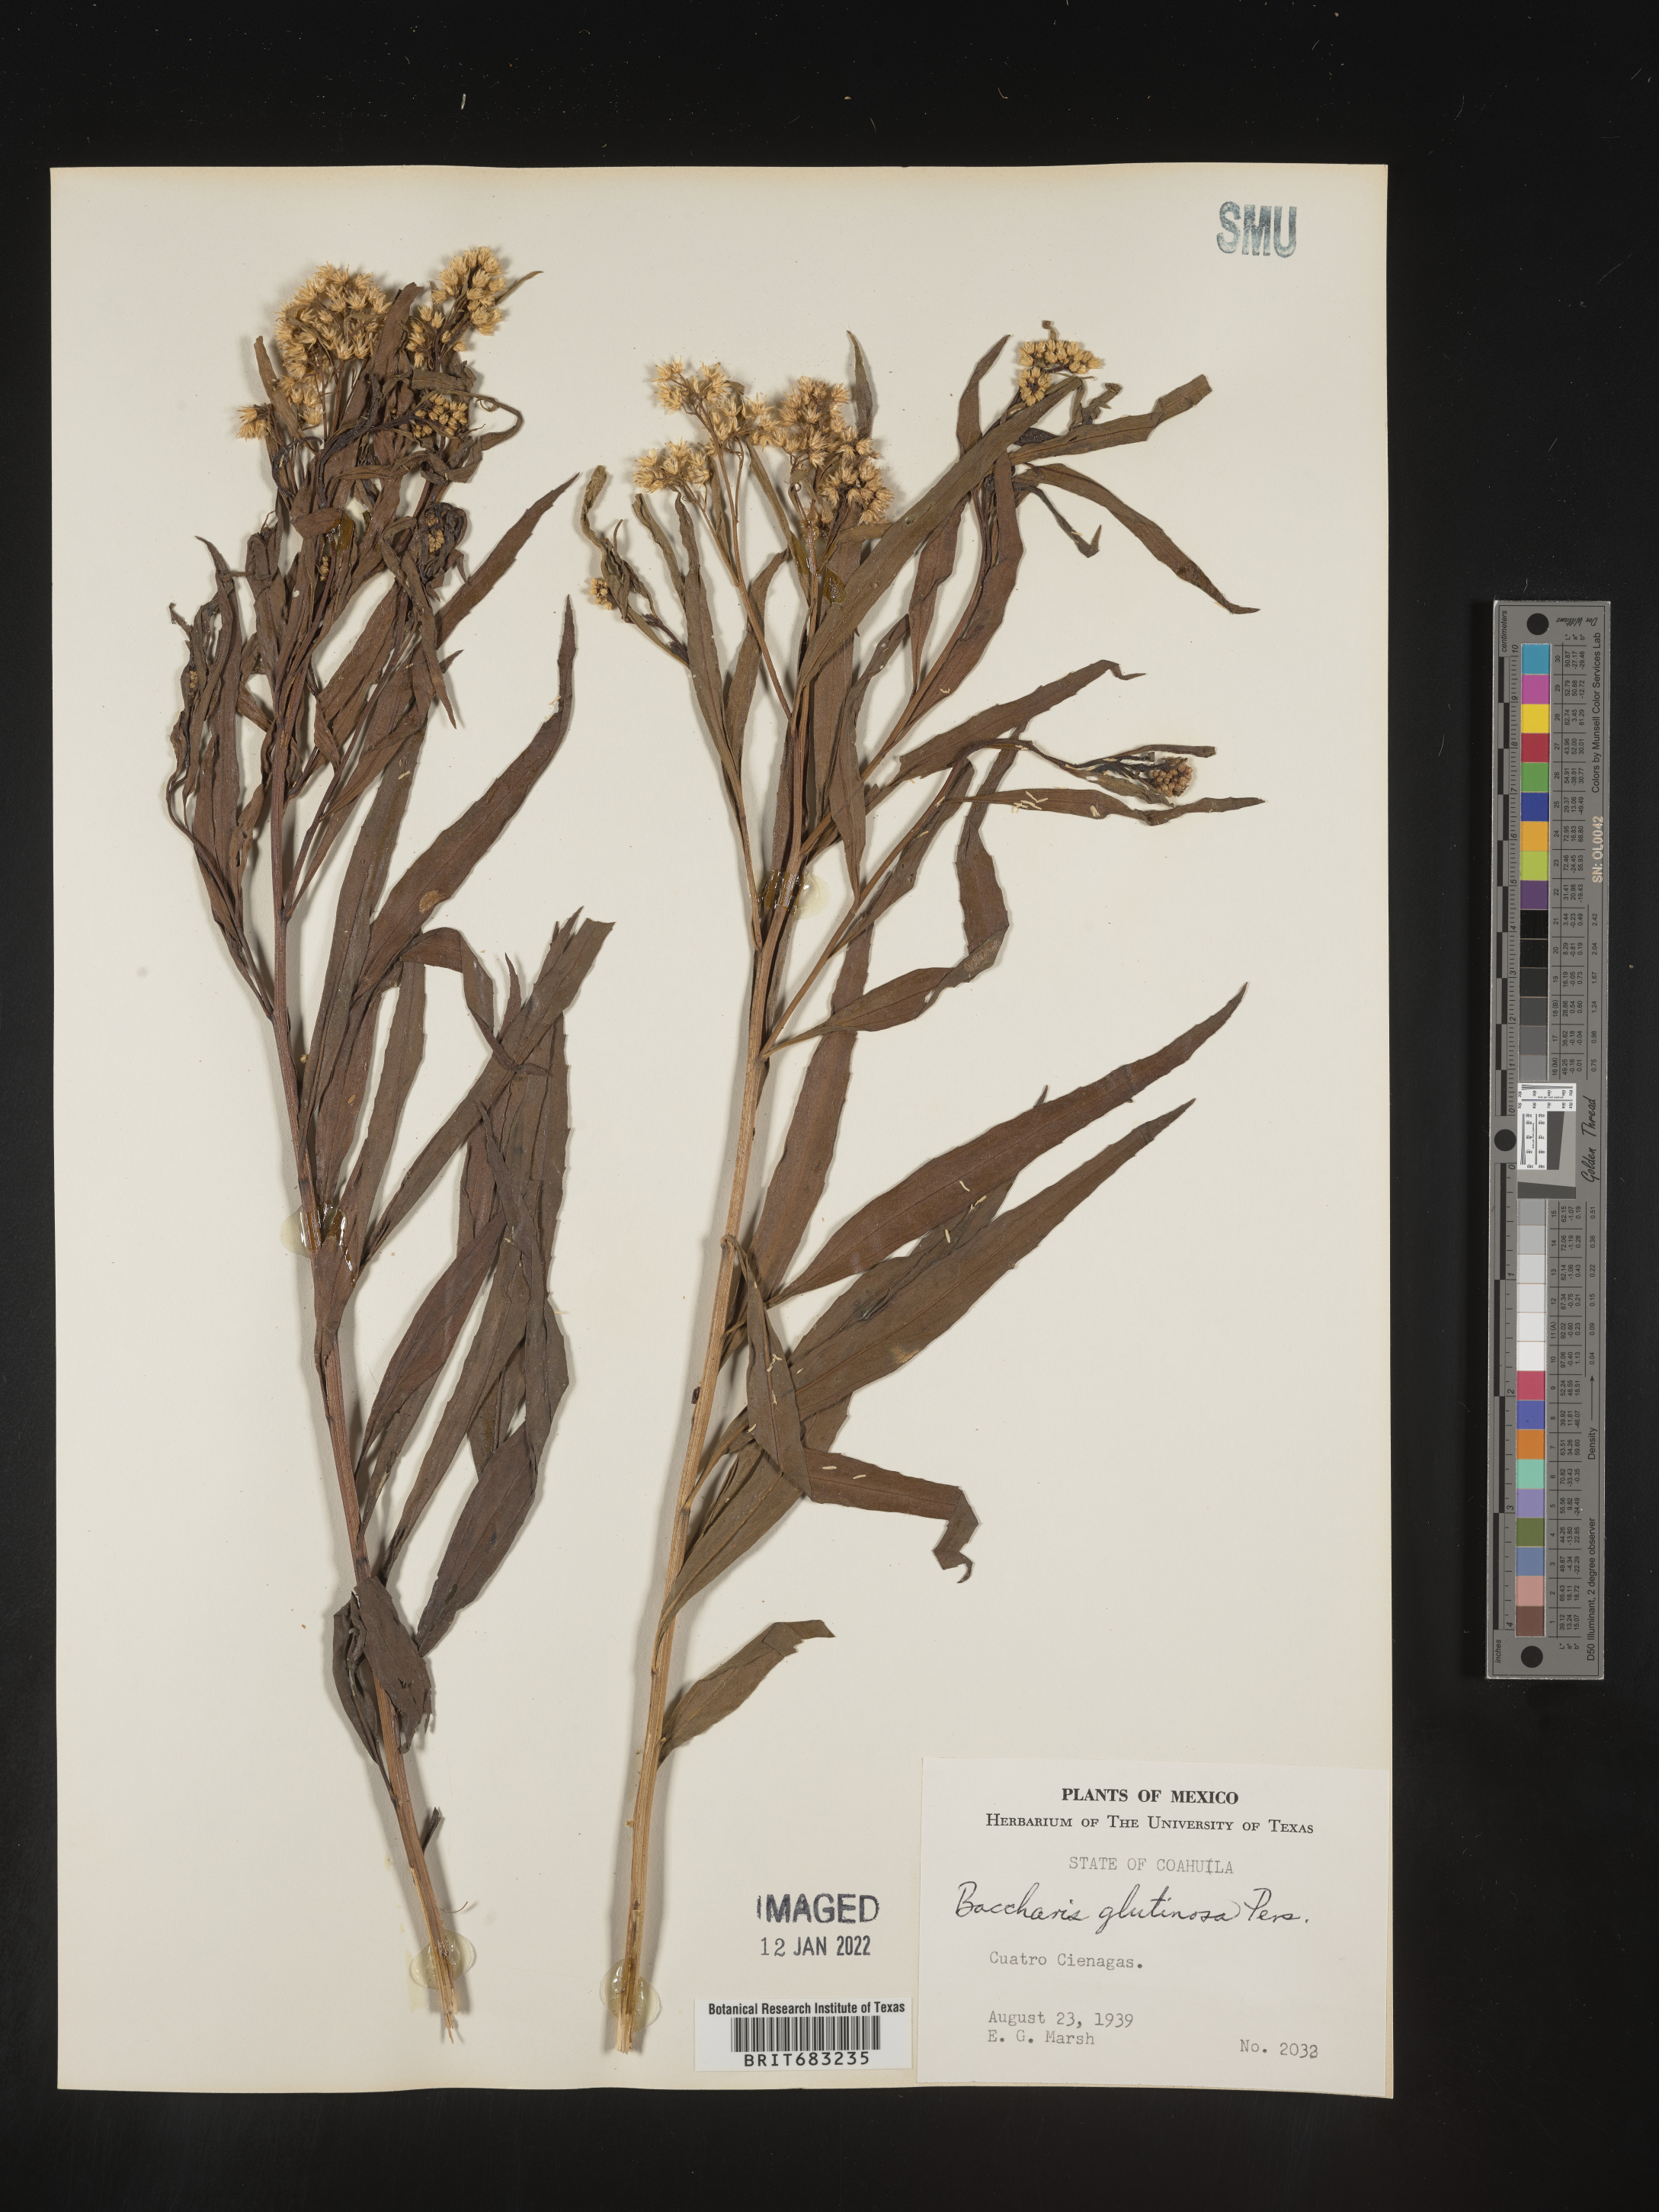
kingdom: Plantae
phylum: Tracheophyta
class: Magnoliopsida
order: Asterales
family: Asteraceae
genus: Baccharis
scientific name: Baccharis salicifolia
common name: Sticky baccharis
